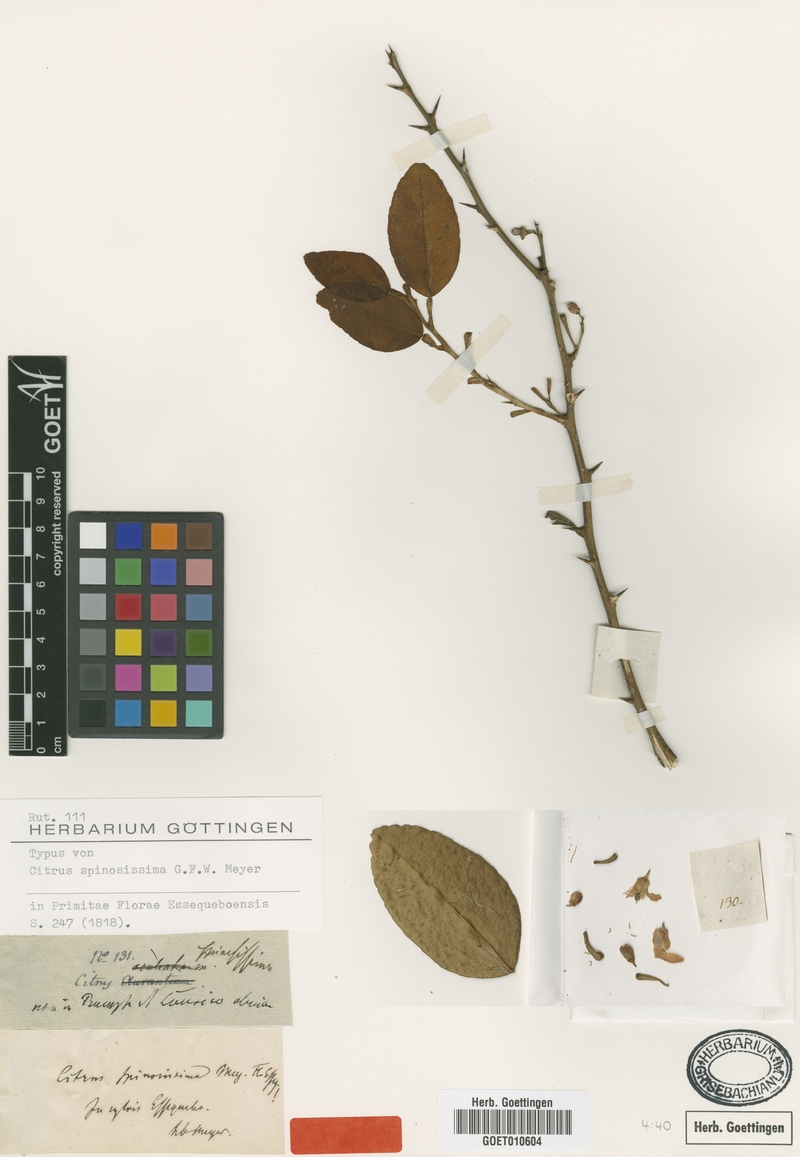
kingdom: Plantae
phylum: Tracheophyta
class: Magnoliopsida
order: Sapindales
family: Rutaceae
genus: Citrus
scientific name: Citrus medica
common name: Citron
